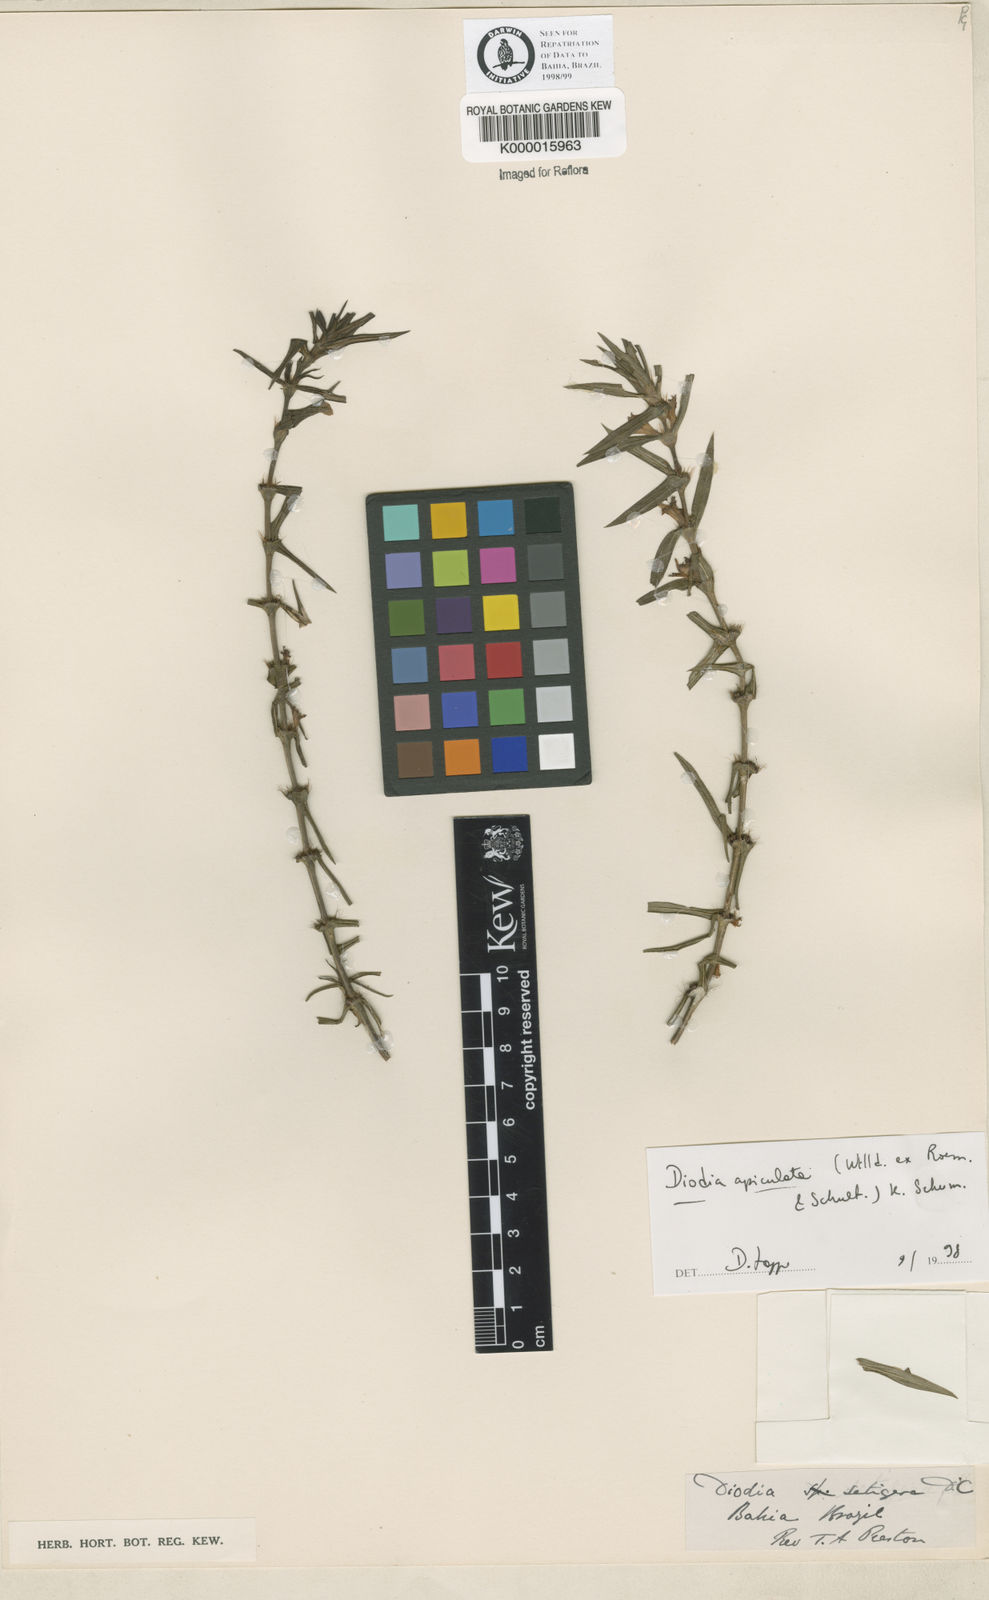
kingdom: Plantae
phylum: Tracheophyta
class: Magnoliopsida
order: Gentianales
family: Rubiaceae
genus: Hexasepalum
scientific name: Hexasepalum apiculatum
